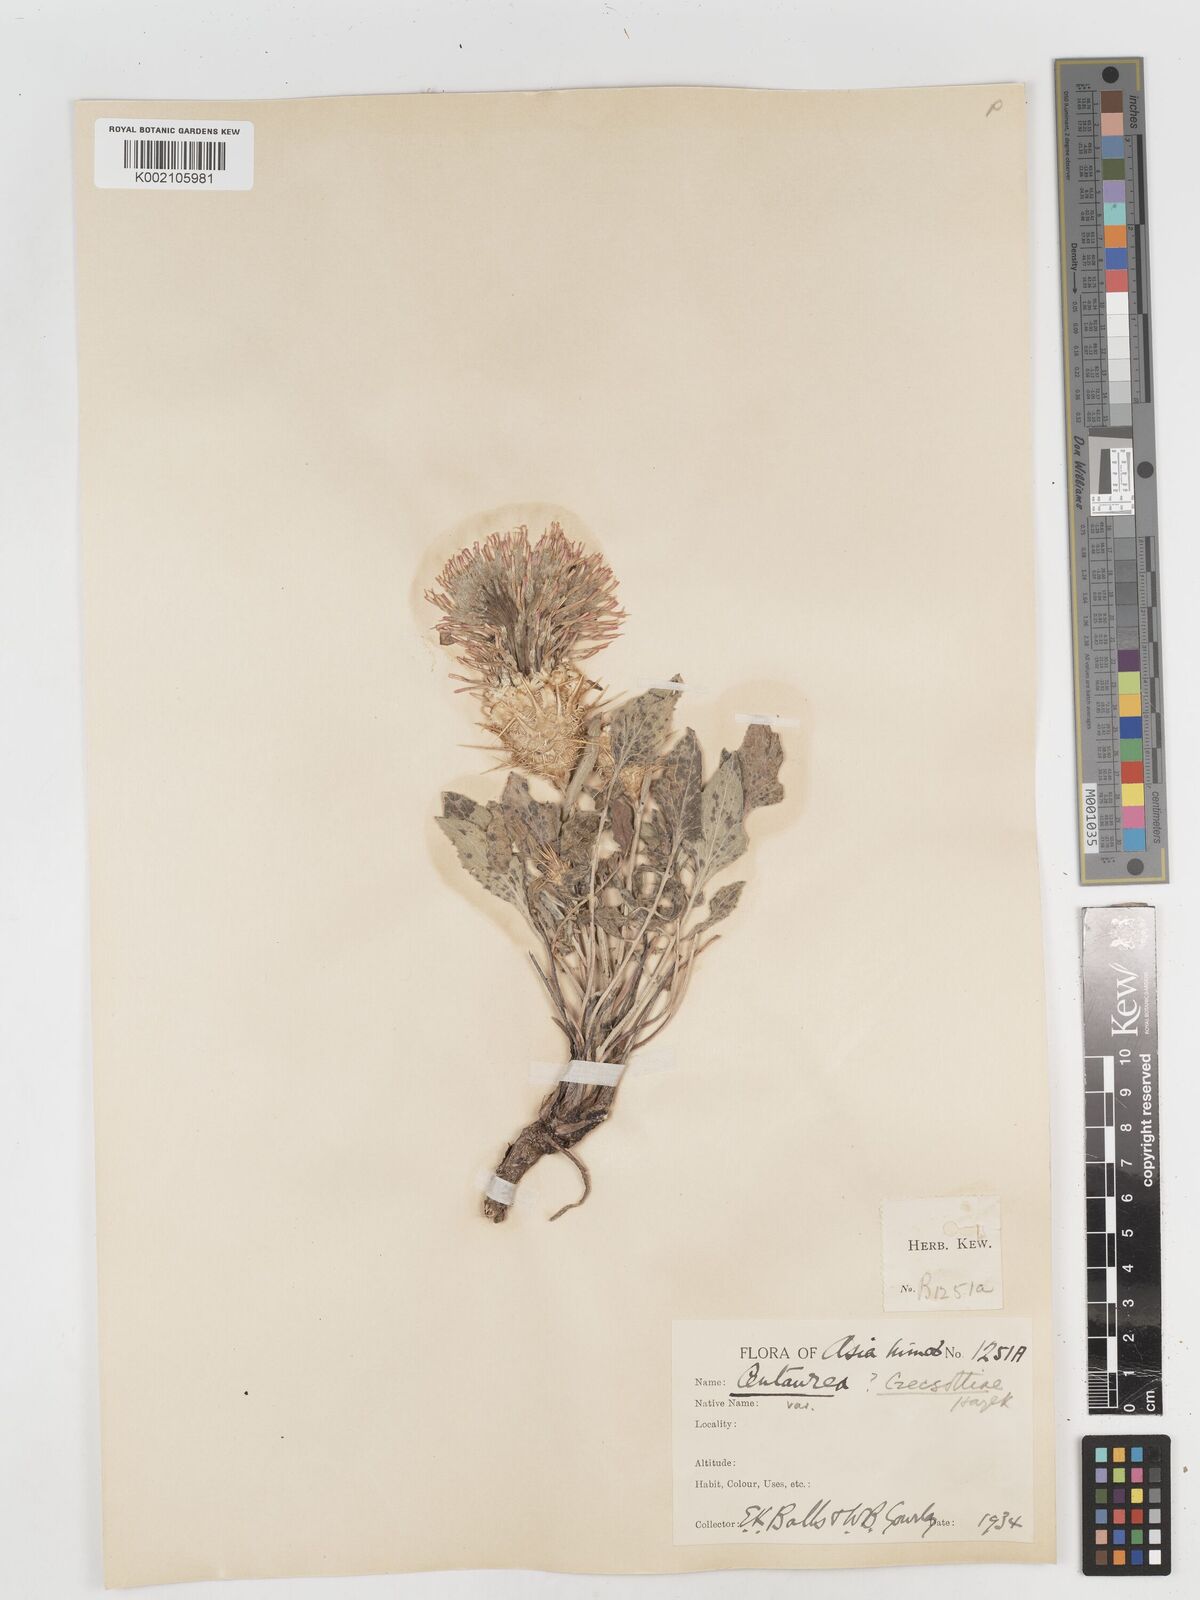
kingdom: Plantae
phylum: Tracheophyta
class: Magnoliopsida
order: Asterales
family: Asteraceae
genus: Centaurea
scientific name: Centaurea
